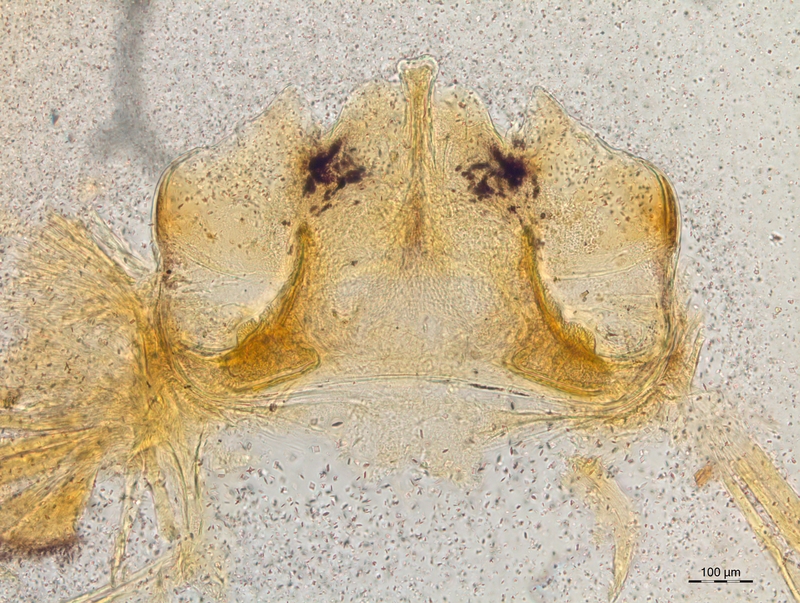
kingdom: Animalia
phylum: Arthropoda
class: Diplopoda
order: Chordeumatida
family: Craspedosomatidae
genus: Craspedosoma
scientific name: Craspedosoma taurinorum
